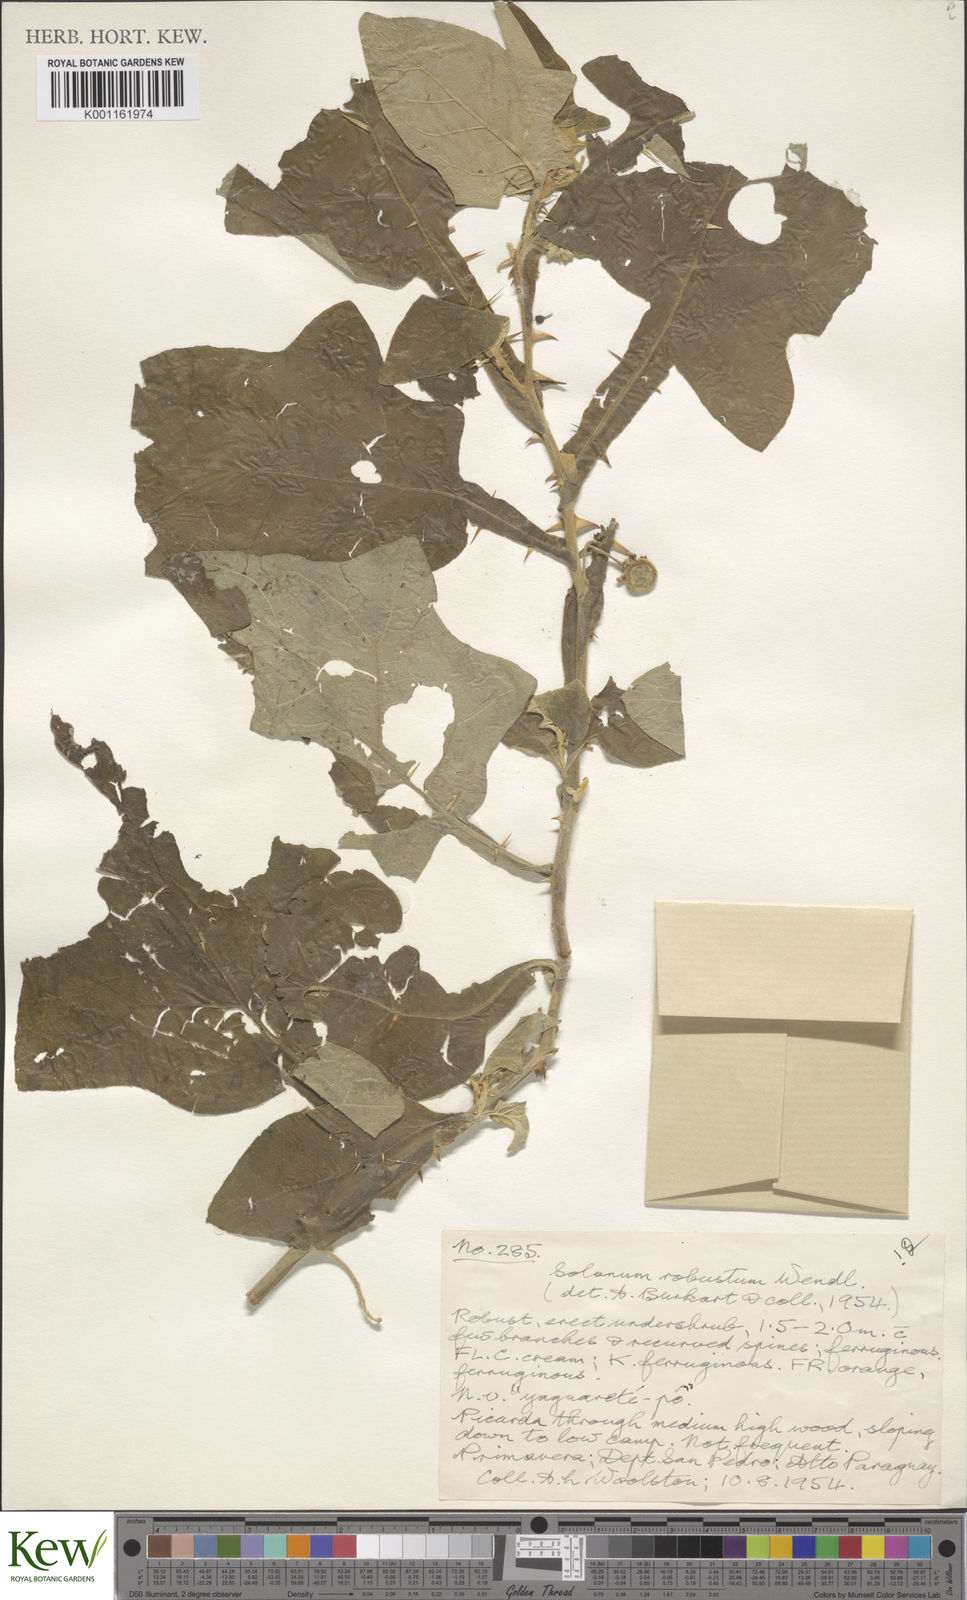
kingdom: Plantae
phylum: Tracheophyta
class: Magnoliopsida
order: Solanales
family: Solanaceae
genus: Solanum
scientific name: Solanum robustum
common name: Shrubby nightshade
